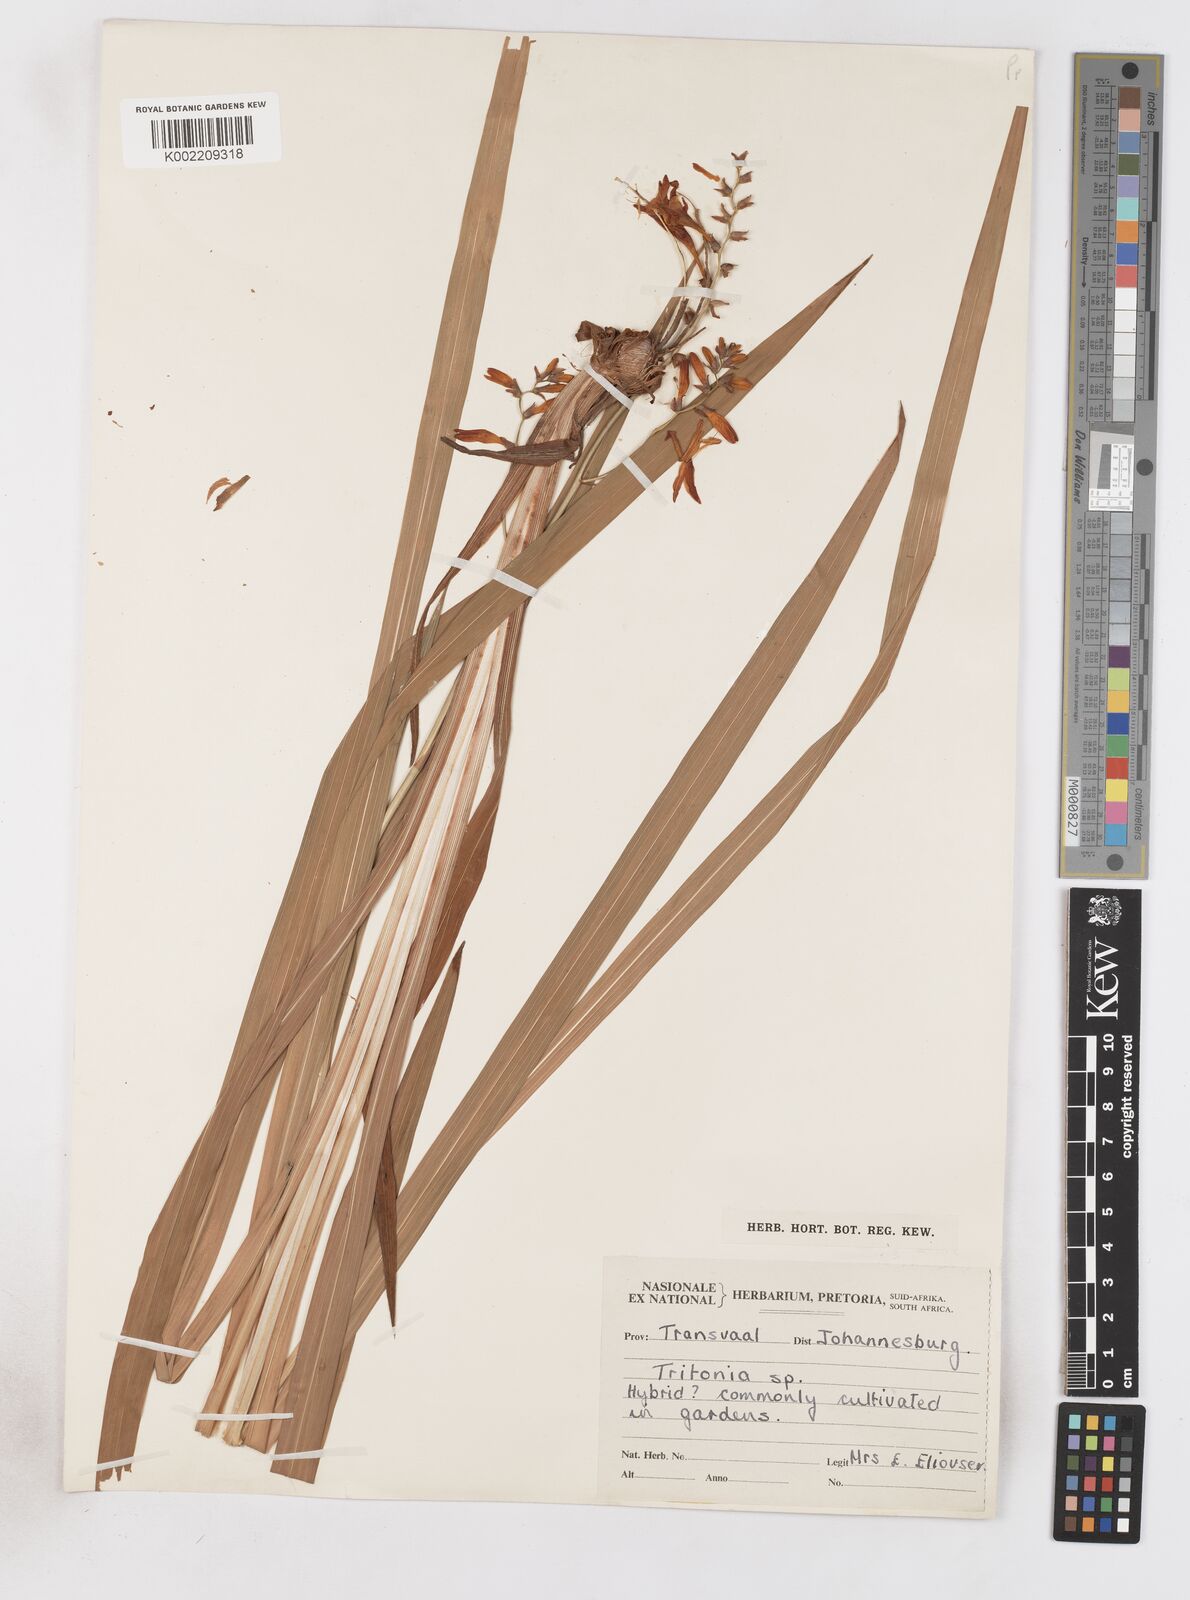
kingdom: Plantae
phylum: Tracheophyta
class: Liliopsida
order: Asparagales
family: Iridaceae
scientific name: Iridaceae
